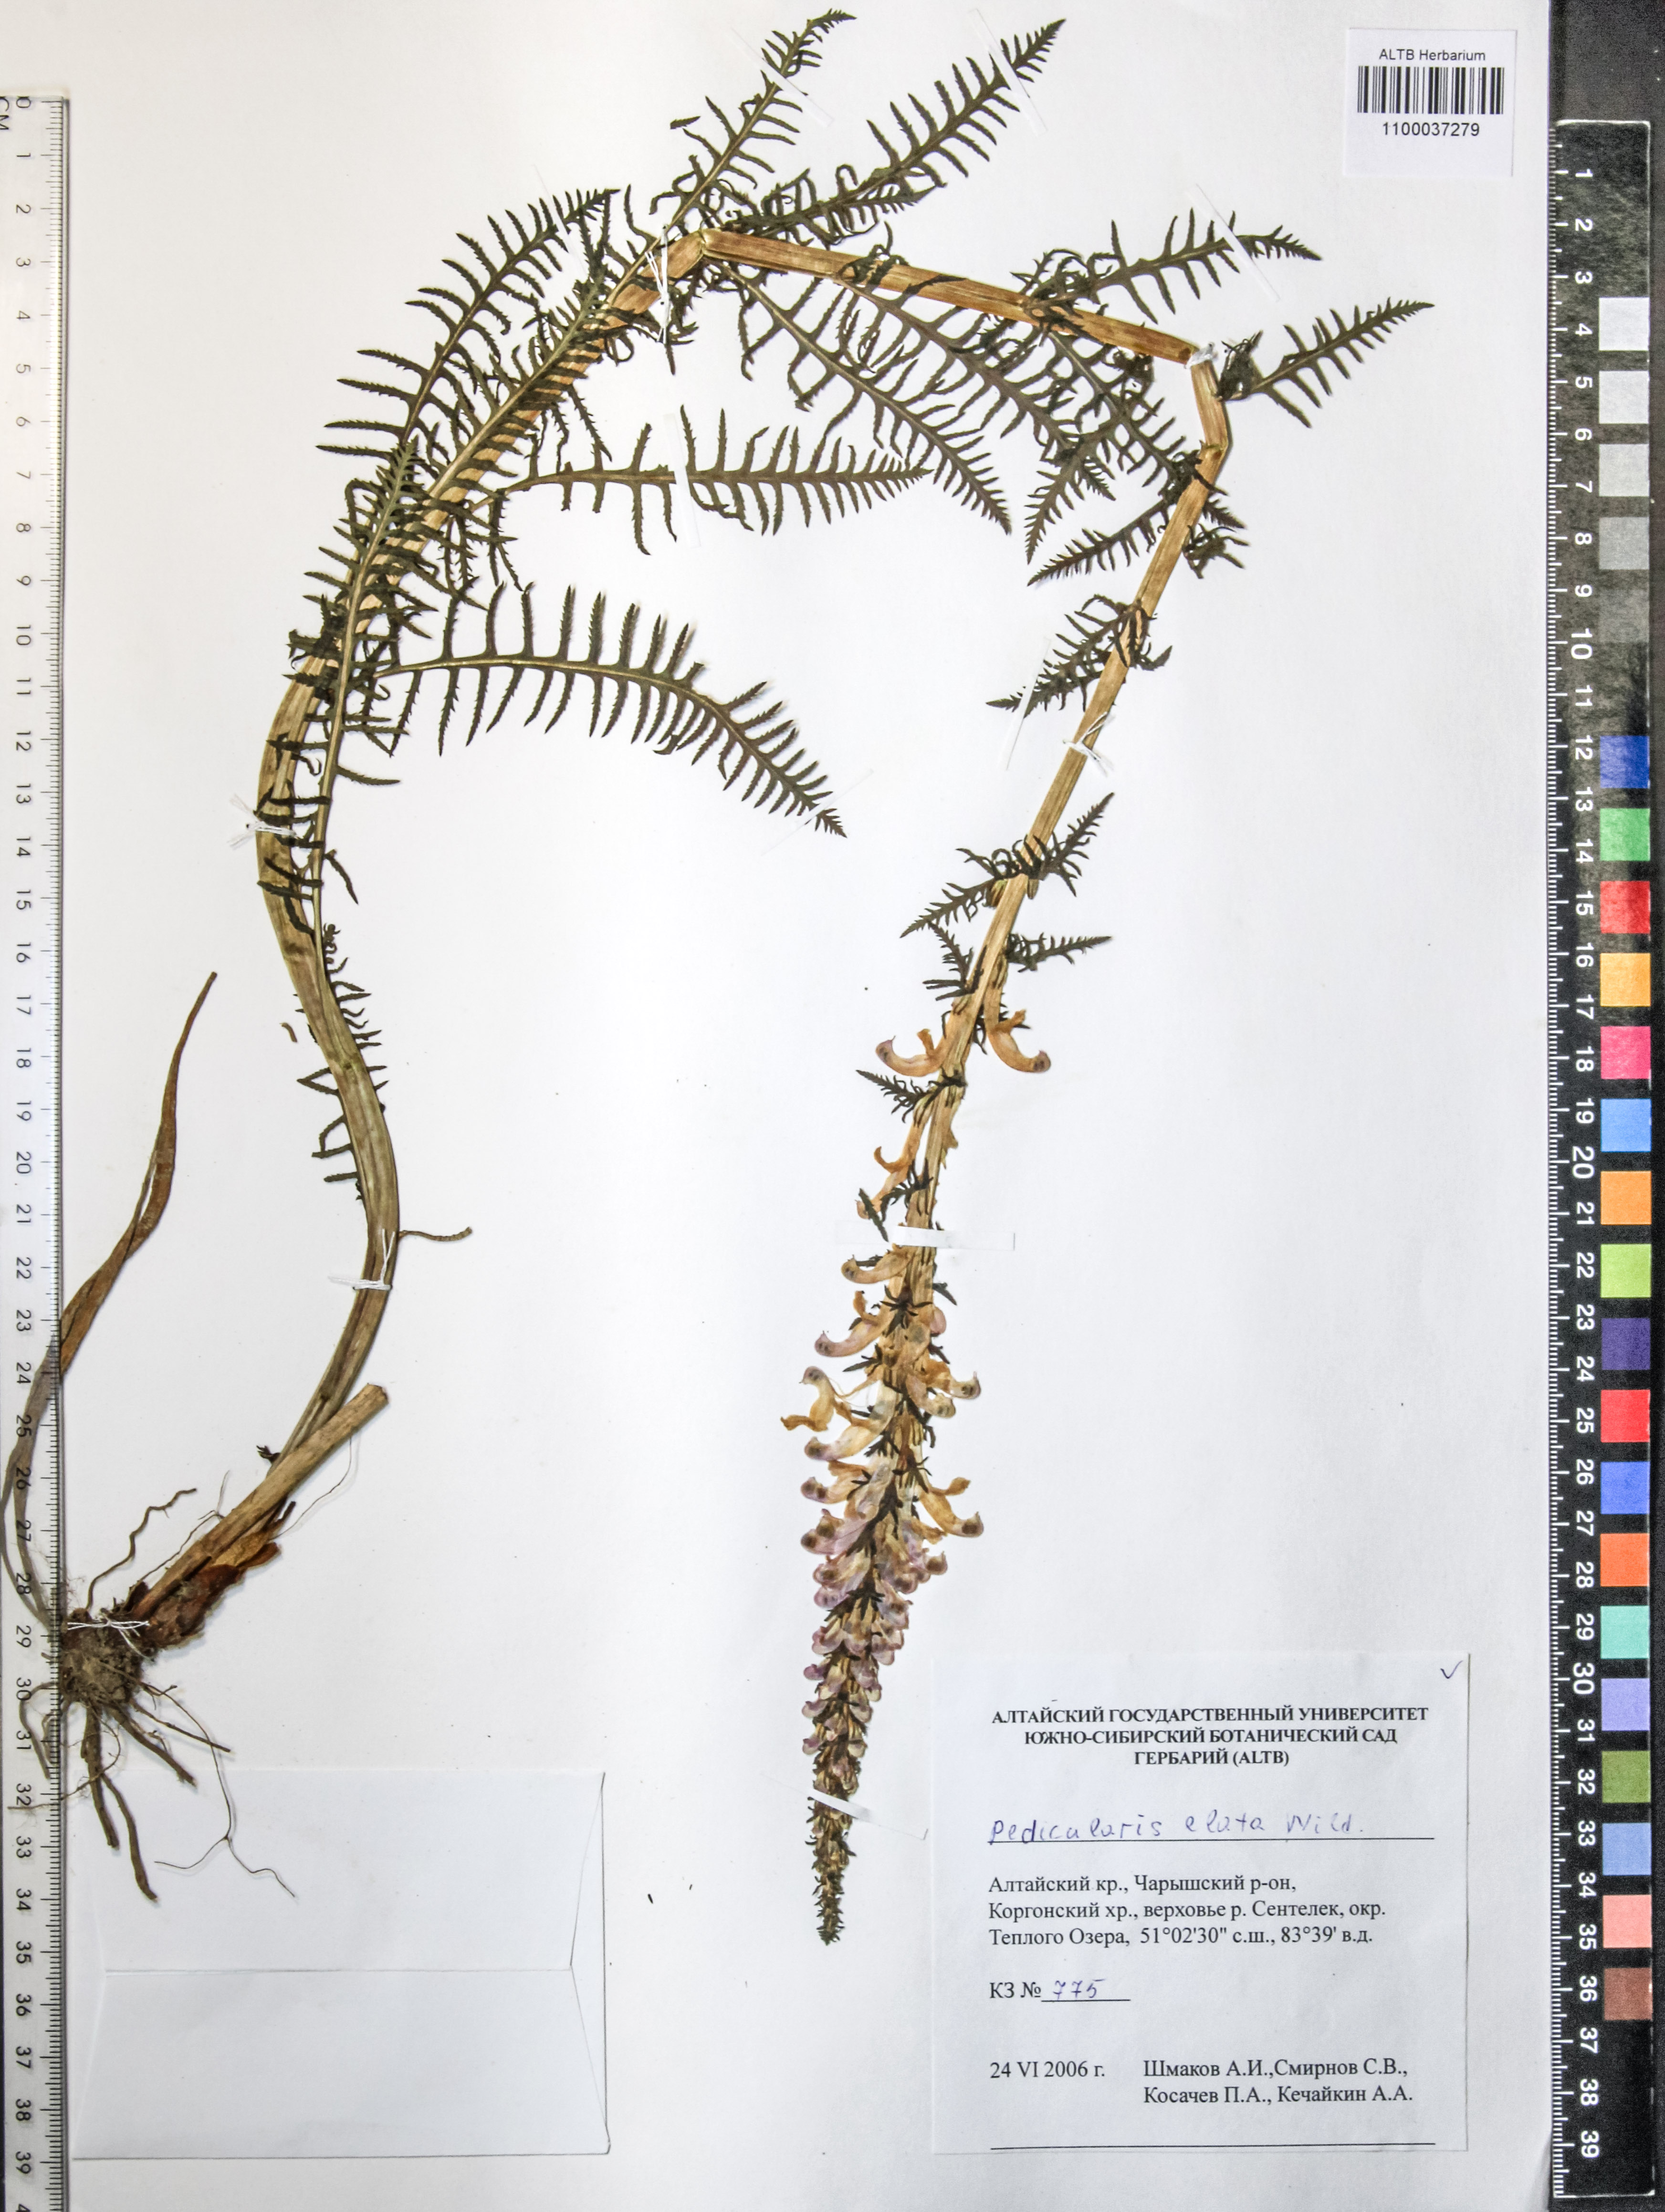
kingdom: Plantae
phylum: Tracheophyta
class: Magnoliopsida
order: Lamiales
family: Orobanchaceae
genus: Pedicularis
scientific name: Pedicularis elata
